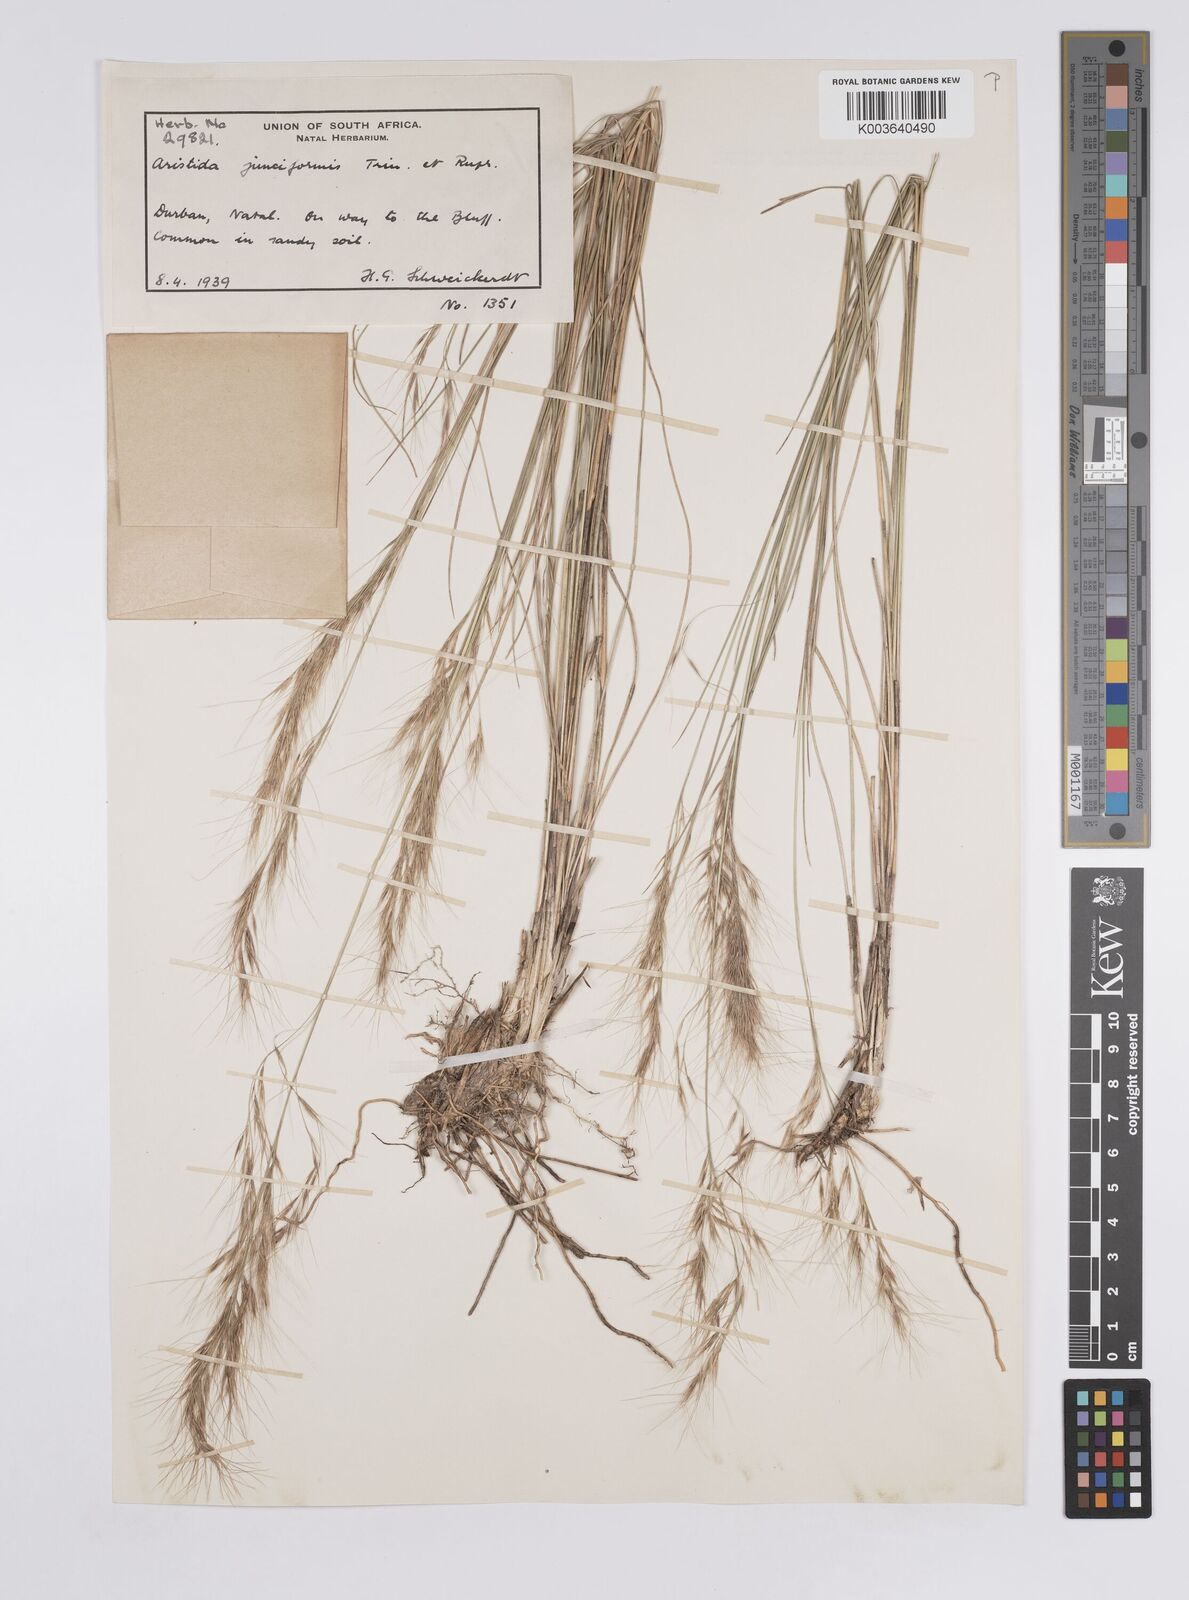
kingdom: Plantae
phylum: Tracheophyta
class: Liliopsida
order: Poales
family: Poaceae
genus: Aristida
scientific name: Aristida leucophaea
